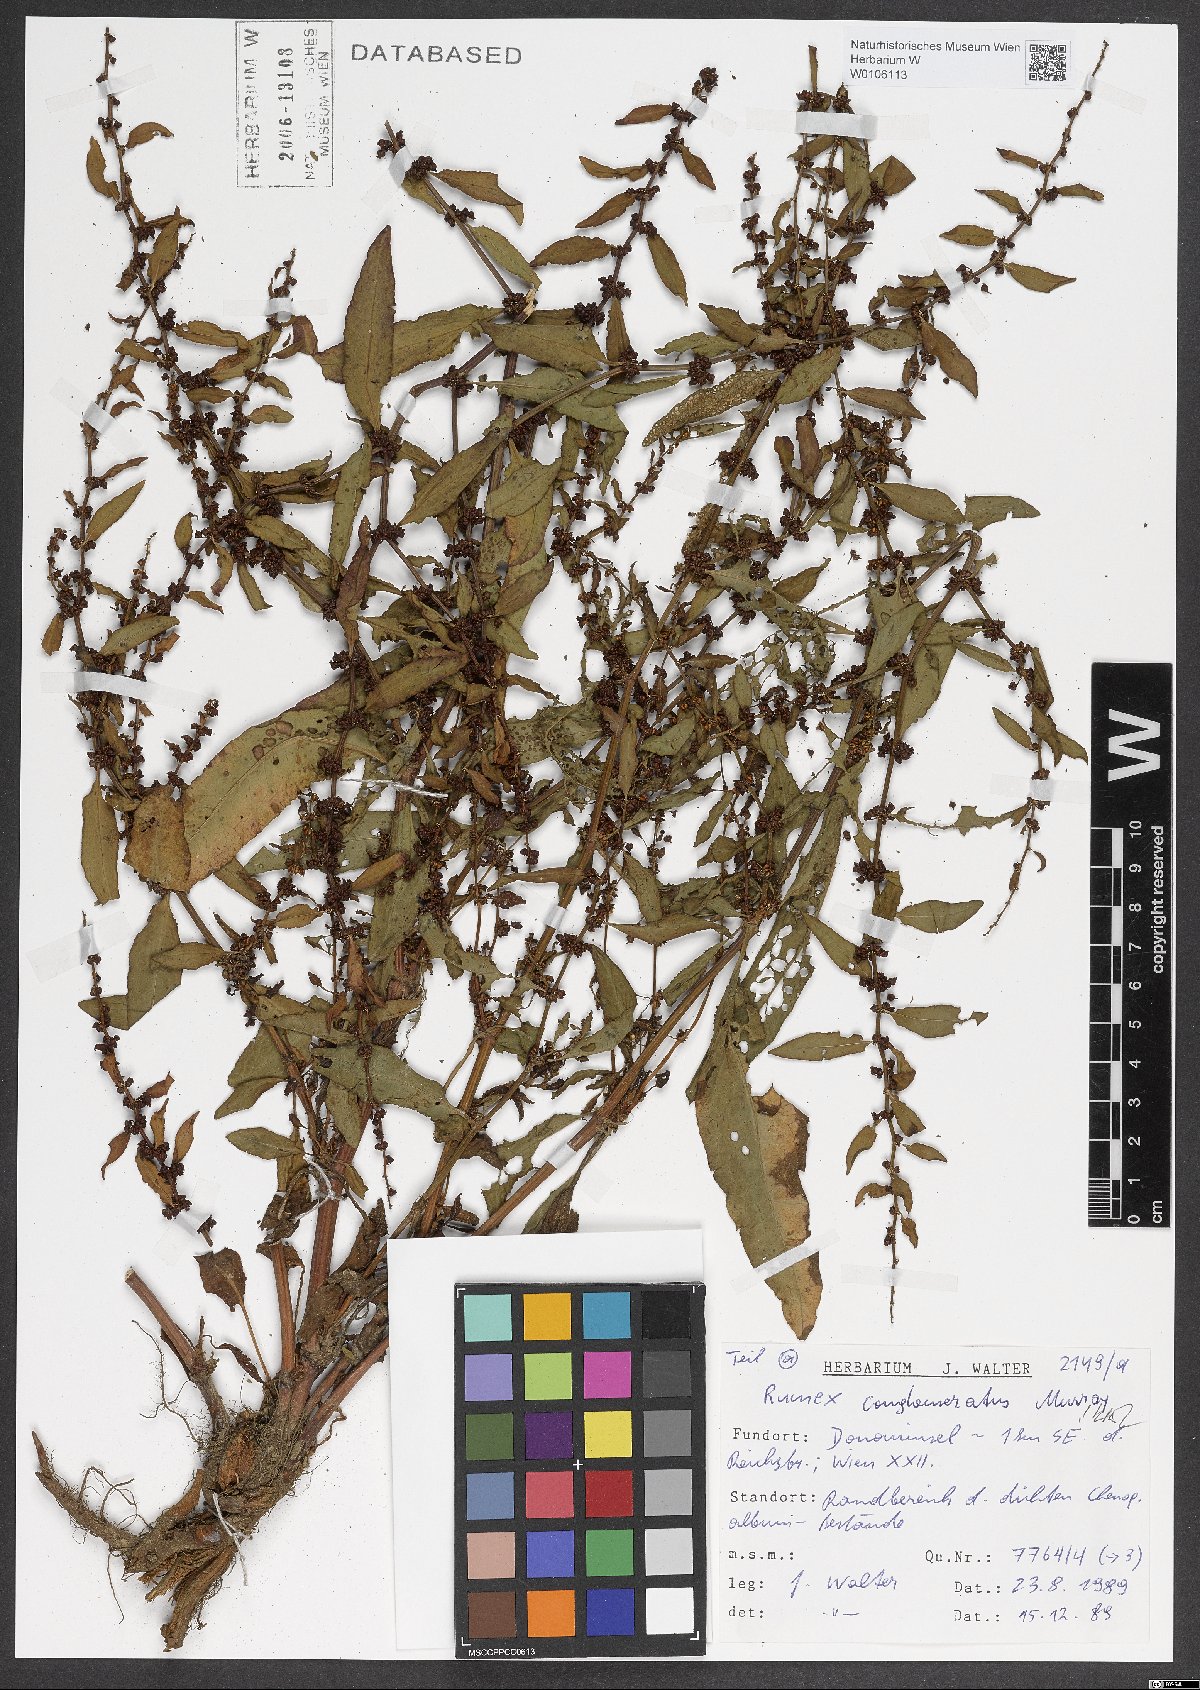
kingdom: Plantae
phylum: Tracheophyta
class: Magnoliopsida
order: Caryophyllales
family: Polygonaceae
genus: Rumex
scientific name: Rumex conglomeratus
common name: Clustered dock
